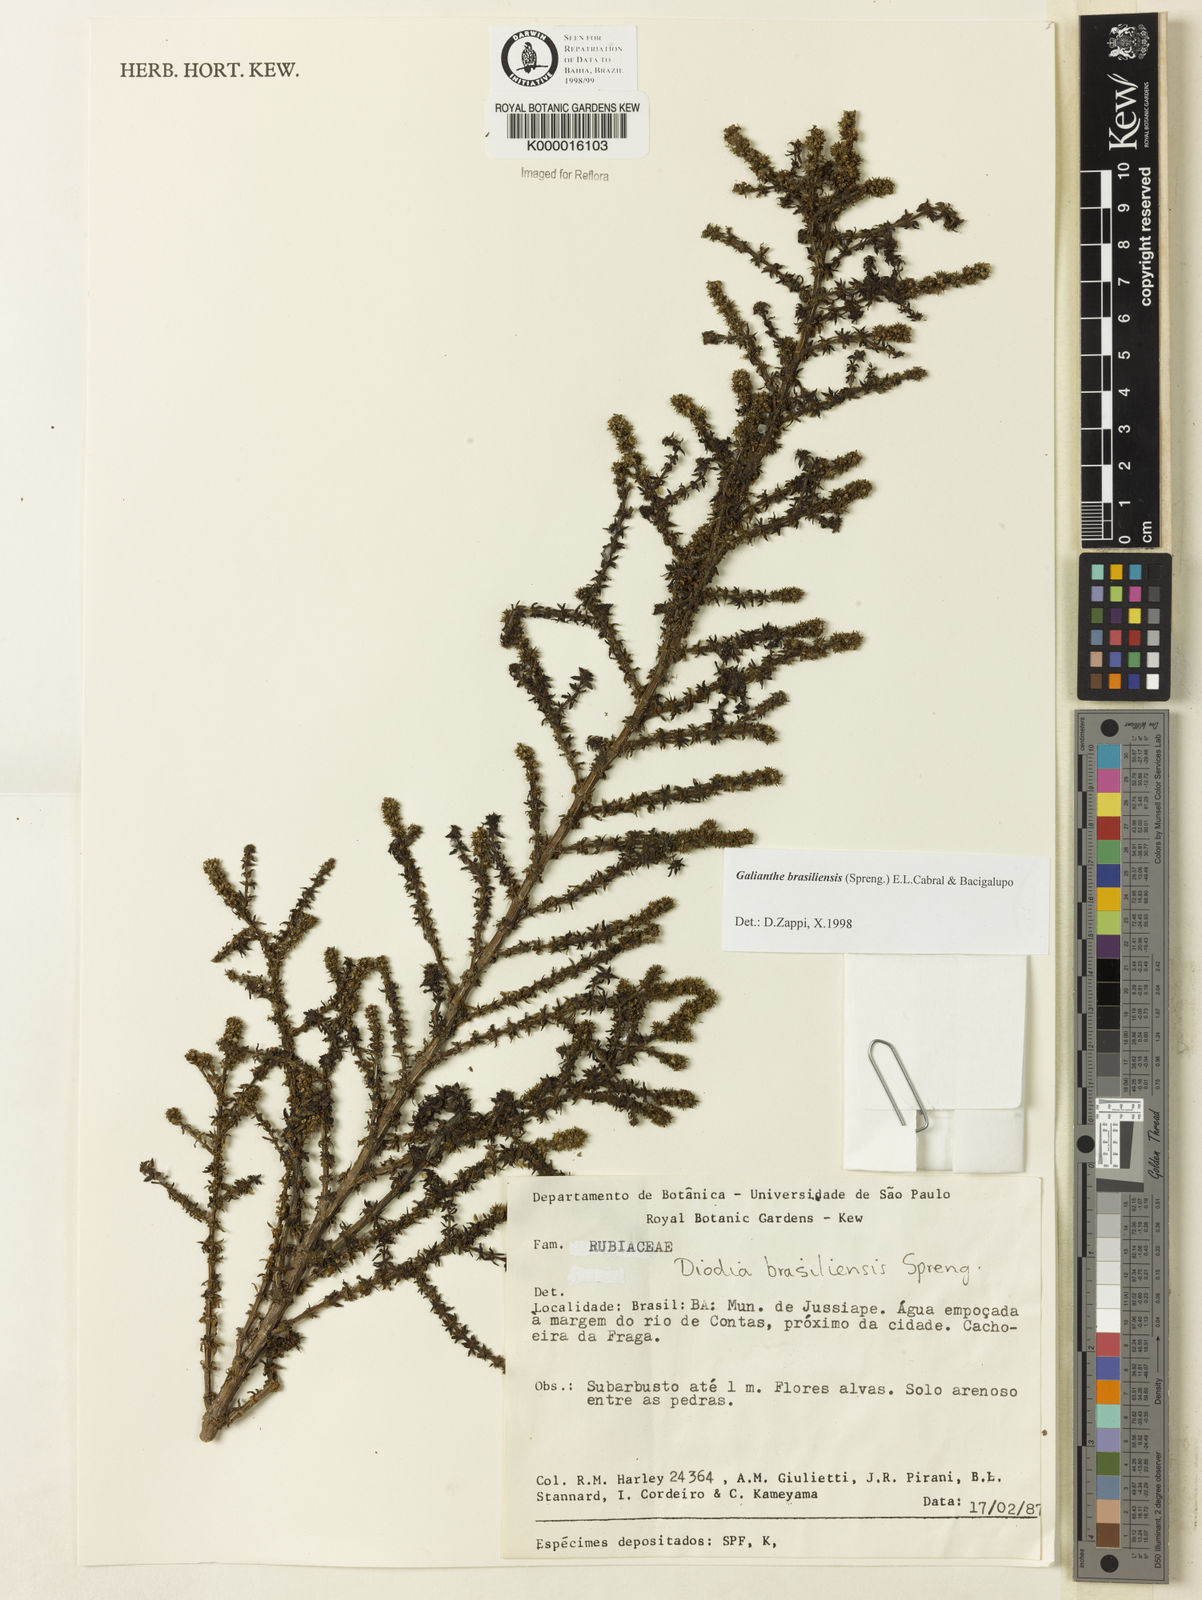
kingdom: Plantae
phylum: Tracheophyta
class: Magnoliopsida
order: Gentianales
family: Rubiaceae
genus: Galianthe
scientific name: Galianthe brasiliensis
